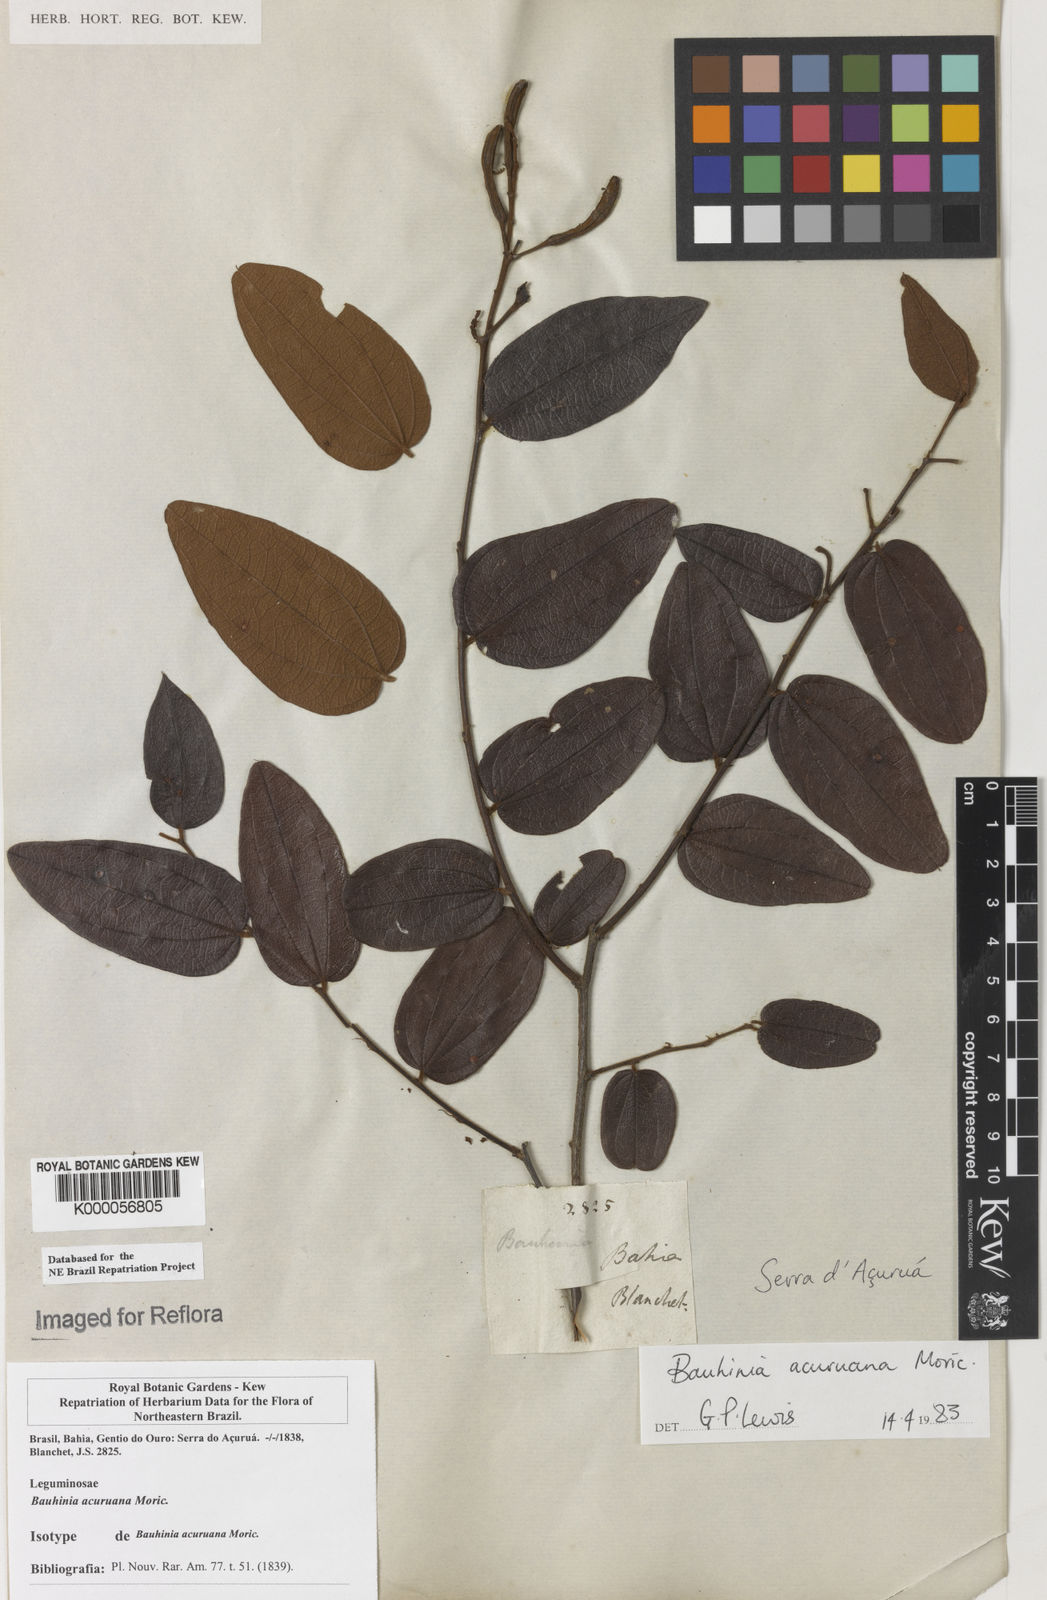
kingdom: Plantae
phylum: Tracheophyta
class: Magnoliopsida
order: Fabales
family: Fabaceae
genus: Bauhinia
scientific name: Bauhinia acuruana
